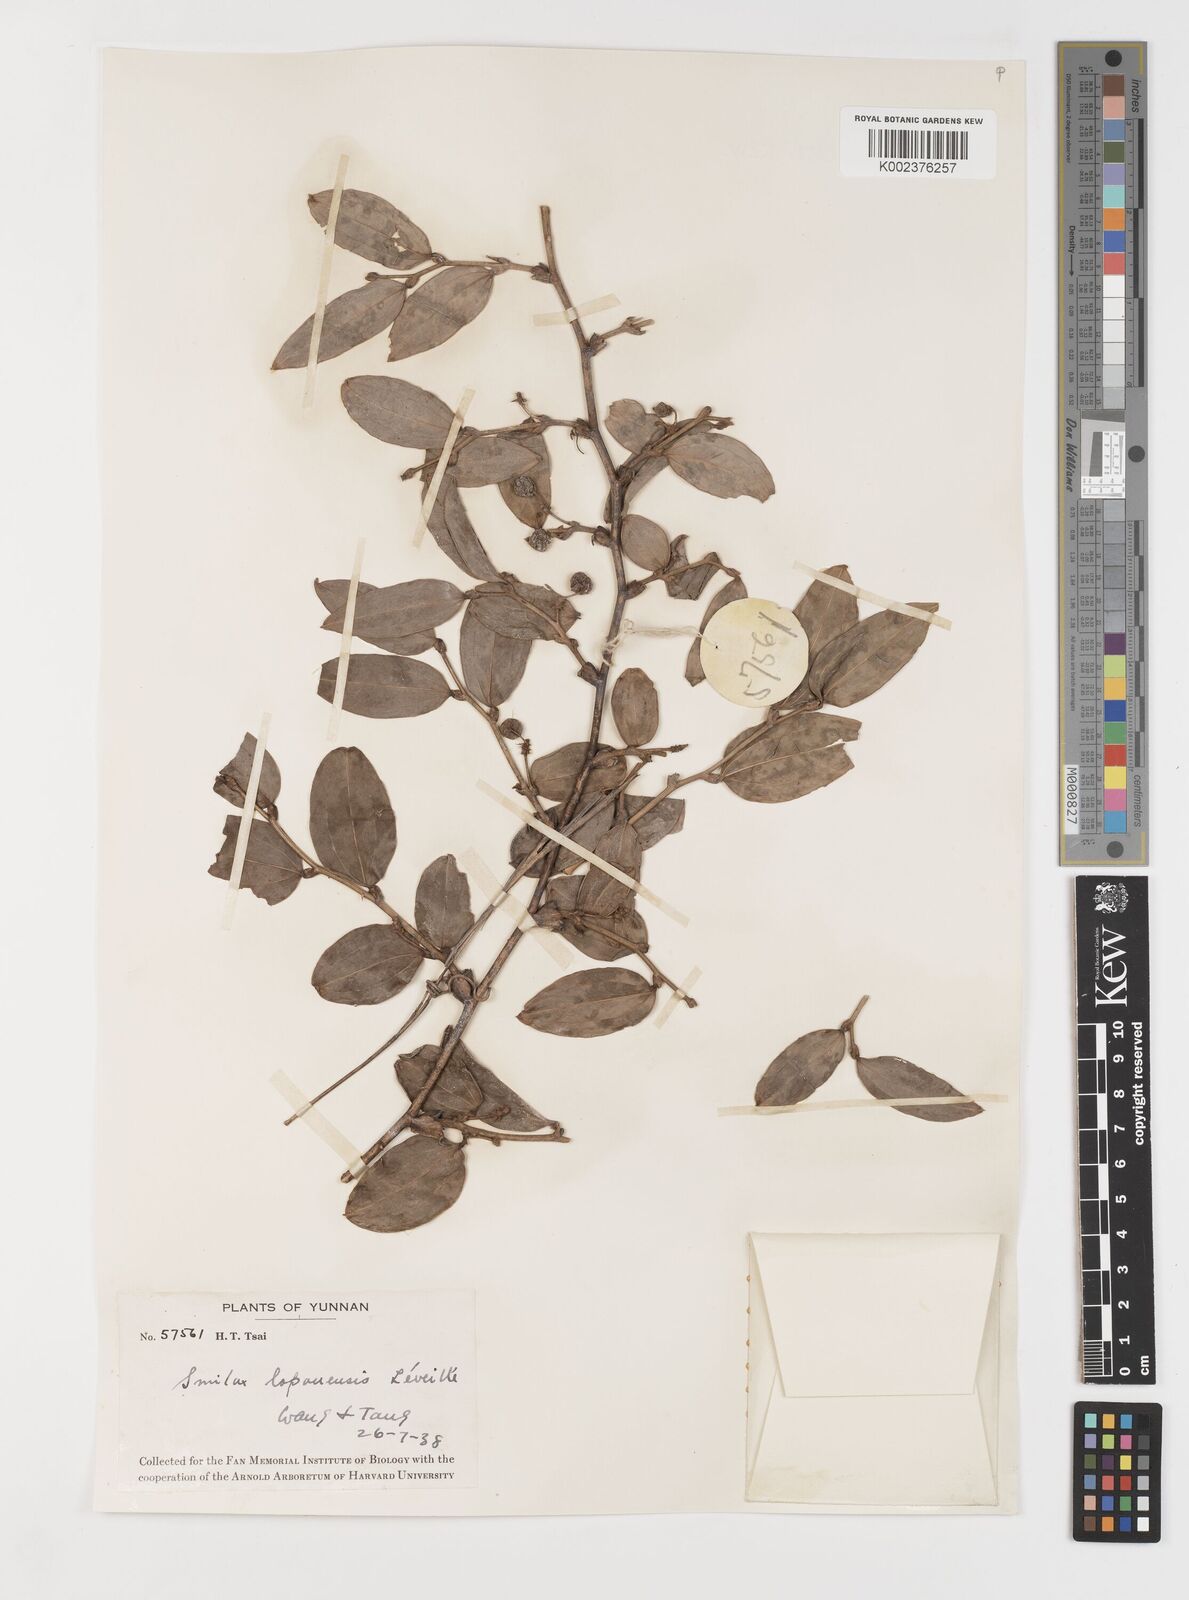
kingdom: Plantae
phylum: Tracheophyta
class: Liliopsida
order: Liliales
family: Smilacaceae
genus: Smilax
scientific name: Smilax megalantha
